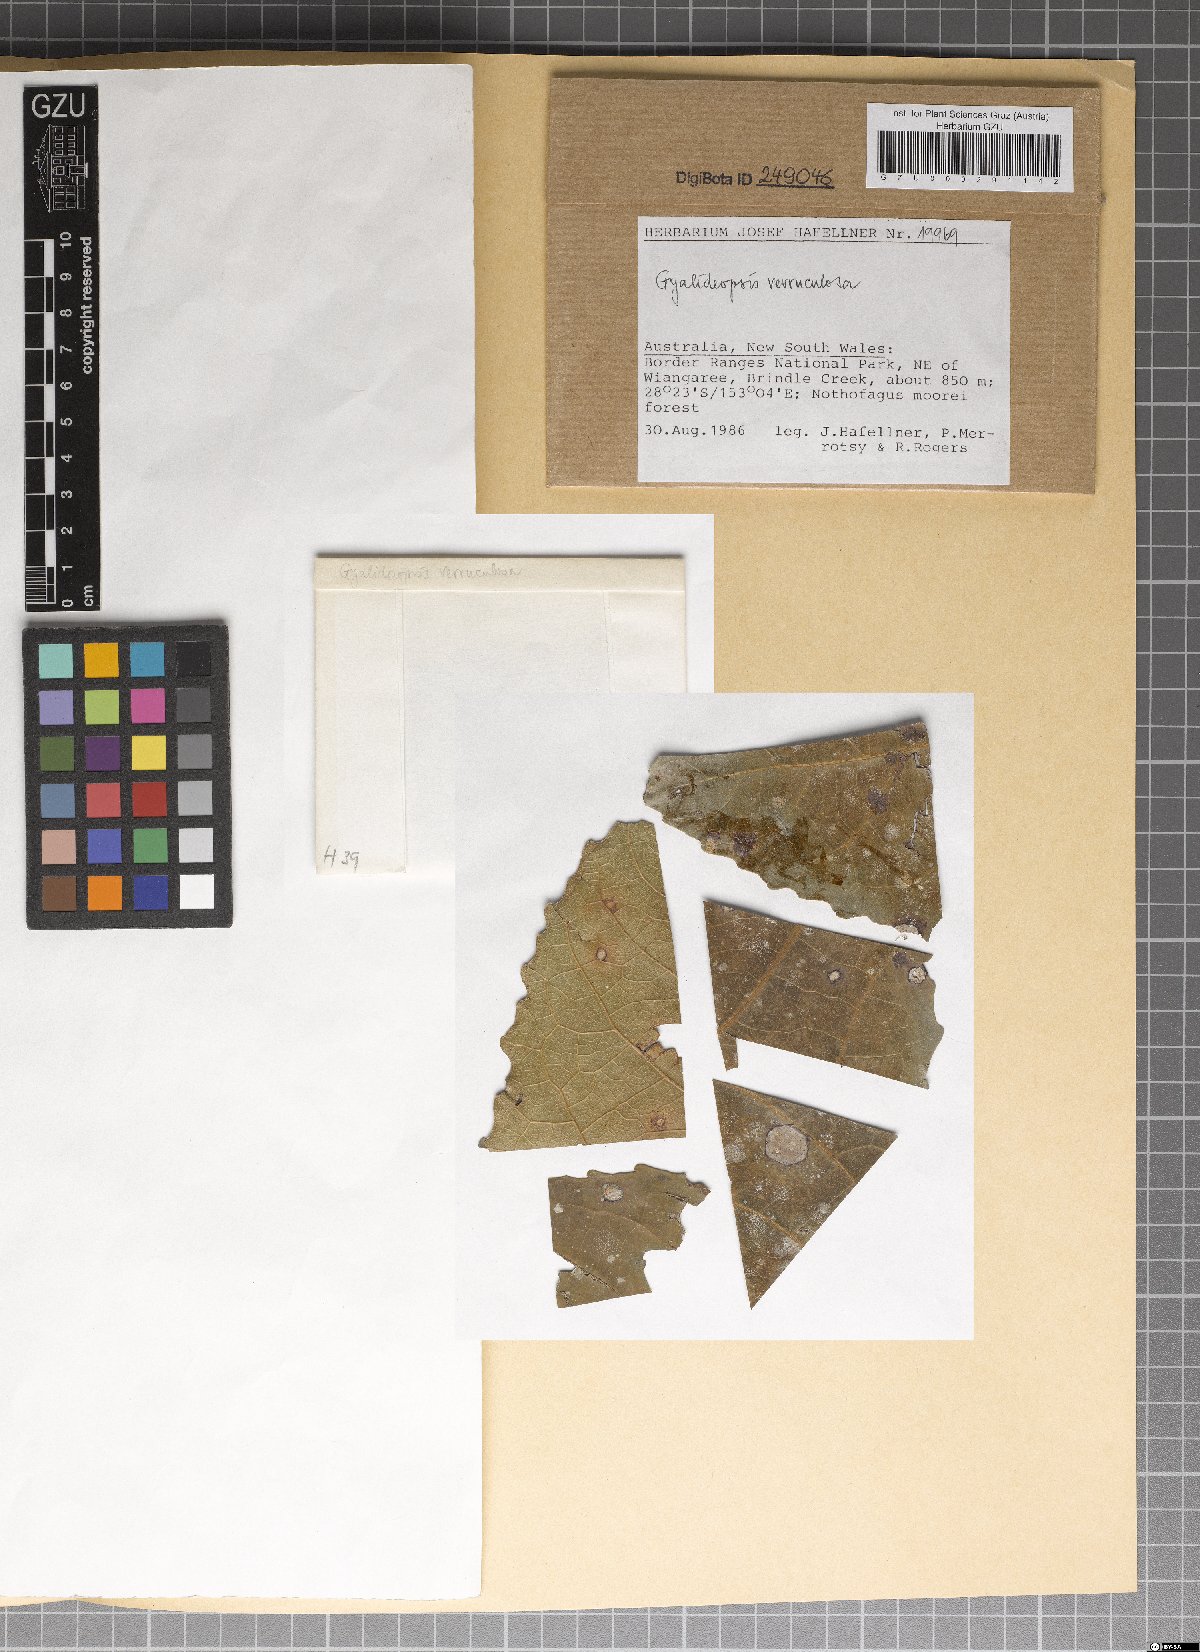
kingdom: Fungi
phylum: Ascomycota
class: Lecanoromycetes
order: Ostropales
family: Gomphillaceae
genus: Gyalideopsis
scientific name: Gyalideopsis verruculosa
